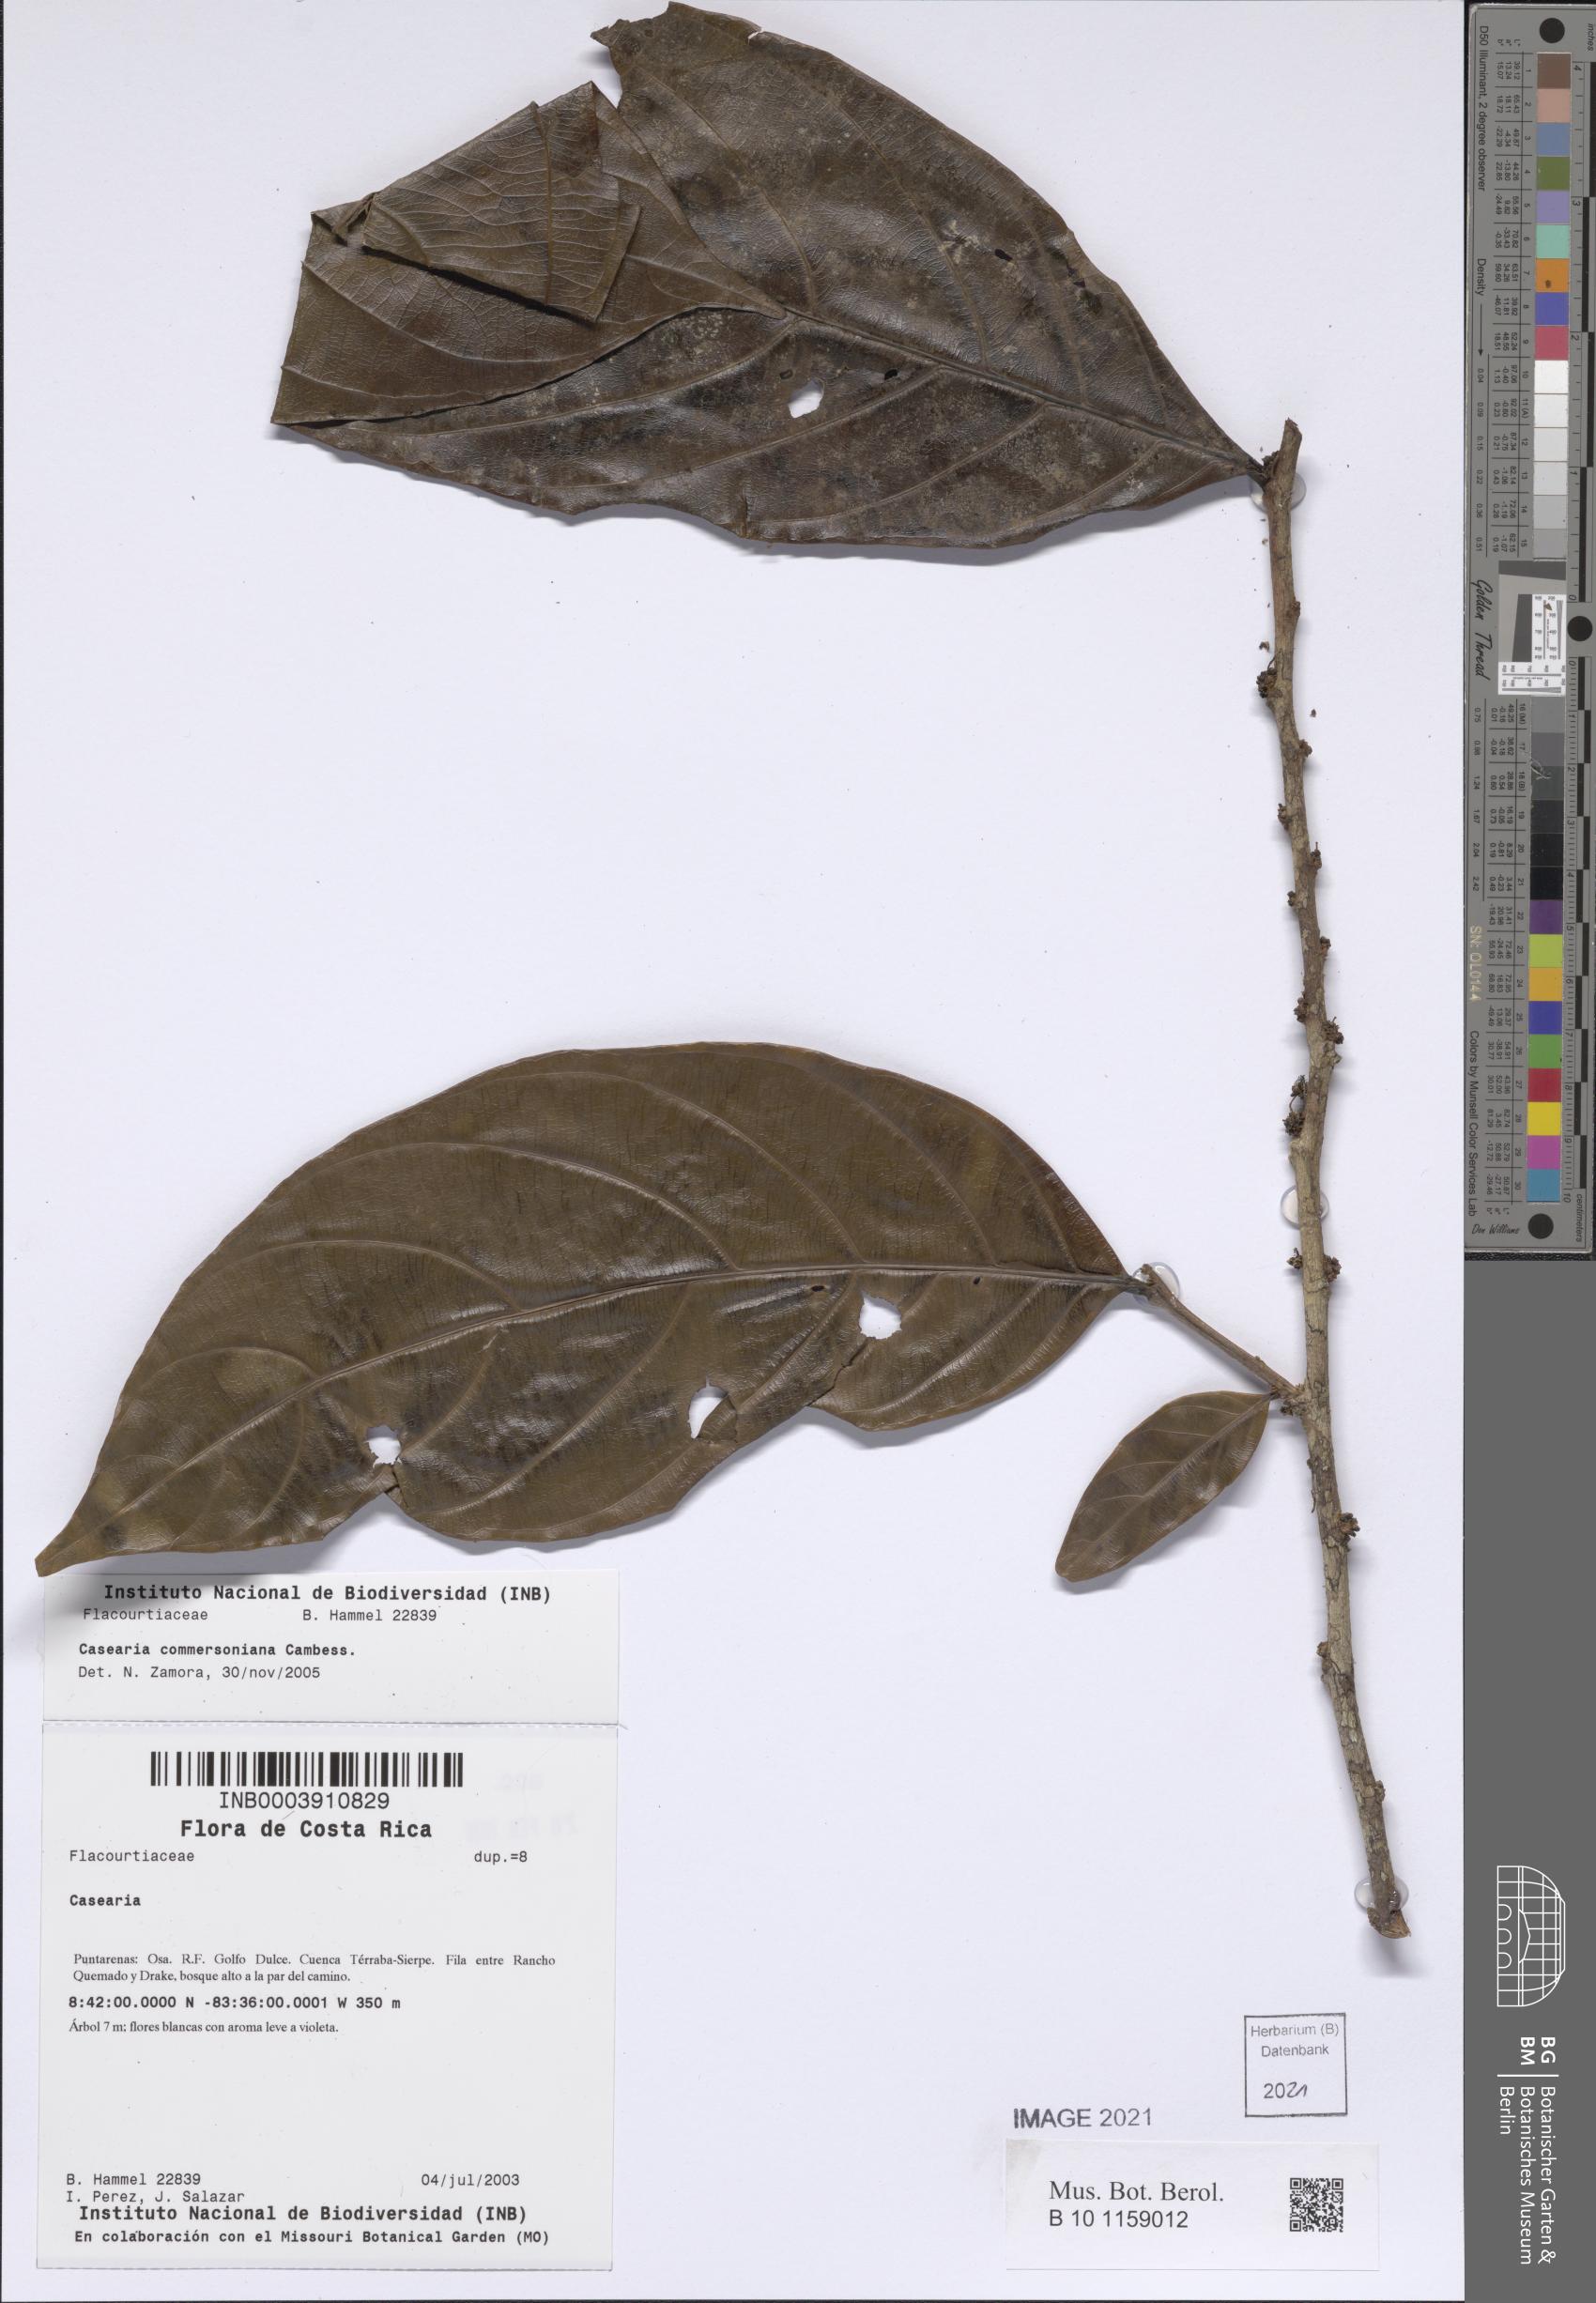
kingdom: Plantae
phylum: Tracheophyta
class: Magnoliopsida
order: Malpighiales
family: Salicaceae
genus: Piparea
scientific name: Piparea dentata
